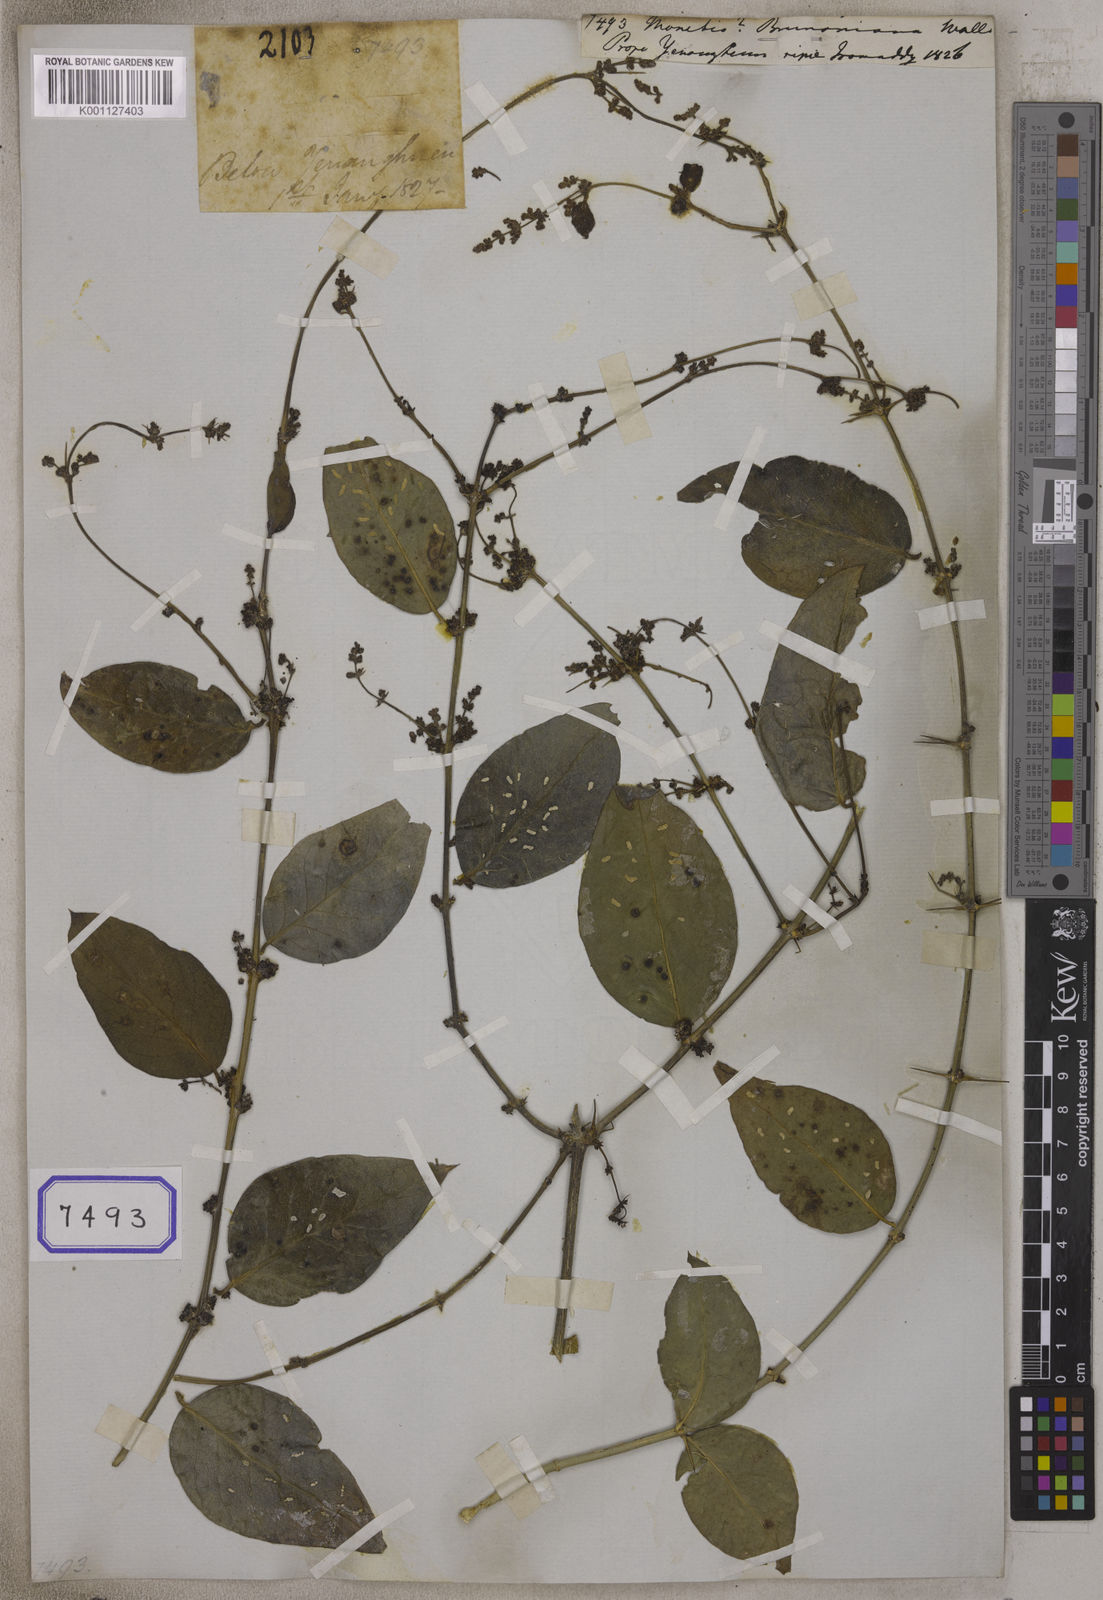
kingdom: Plantae
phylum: Tracheophyta
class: Magnoliopsida
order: Brassicales
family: Salvadoraceae
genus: Azima
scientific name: Azima sarmentosa
